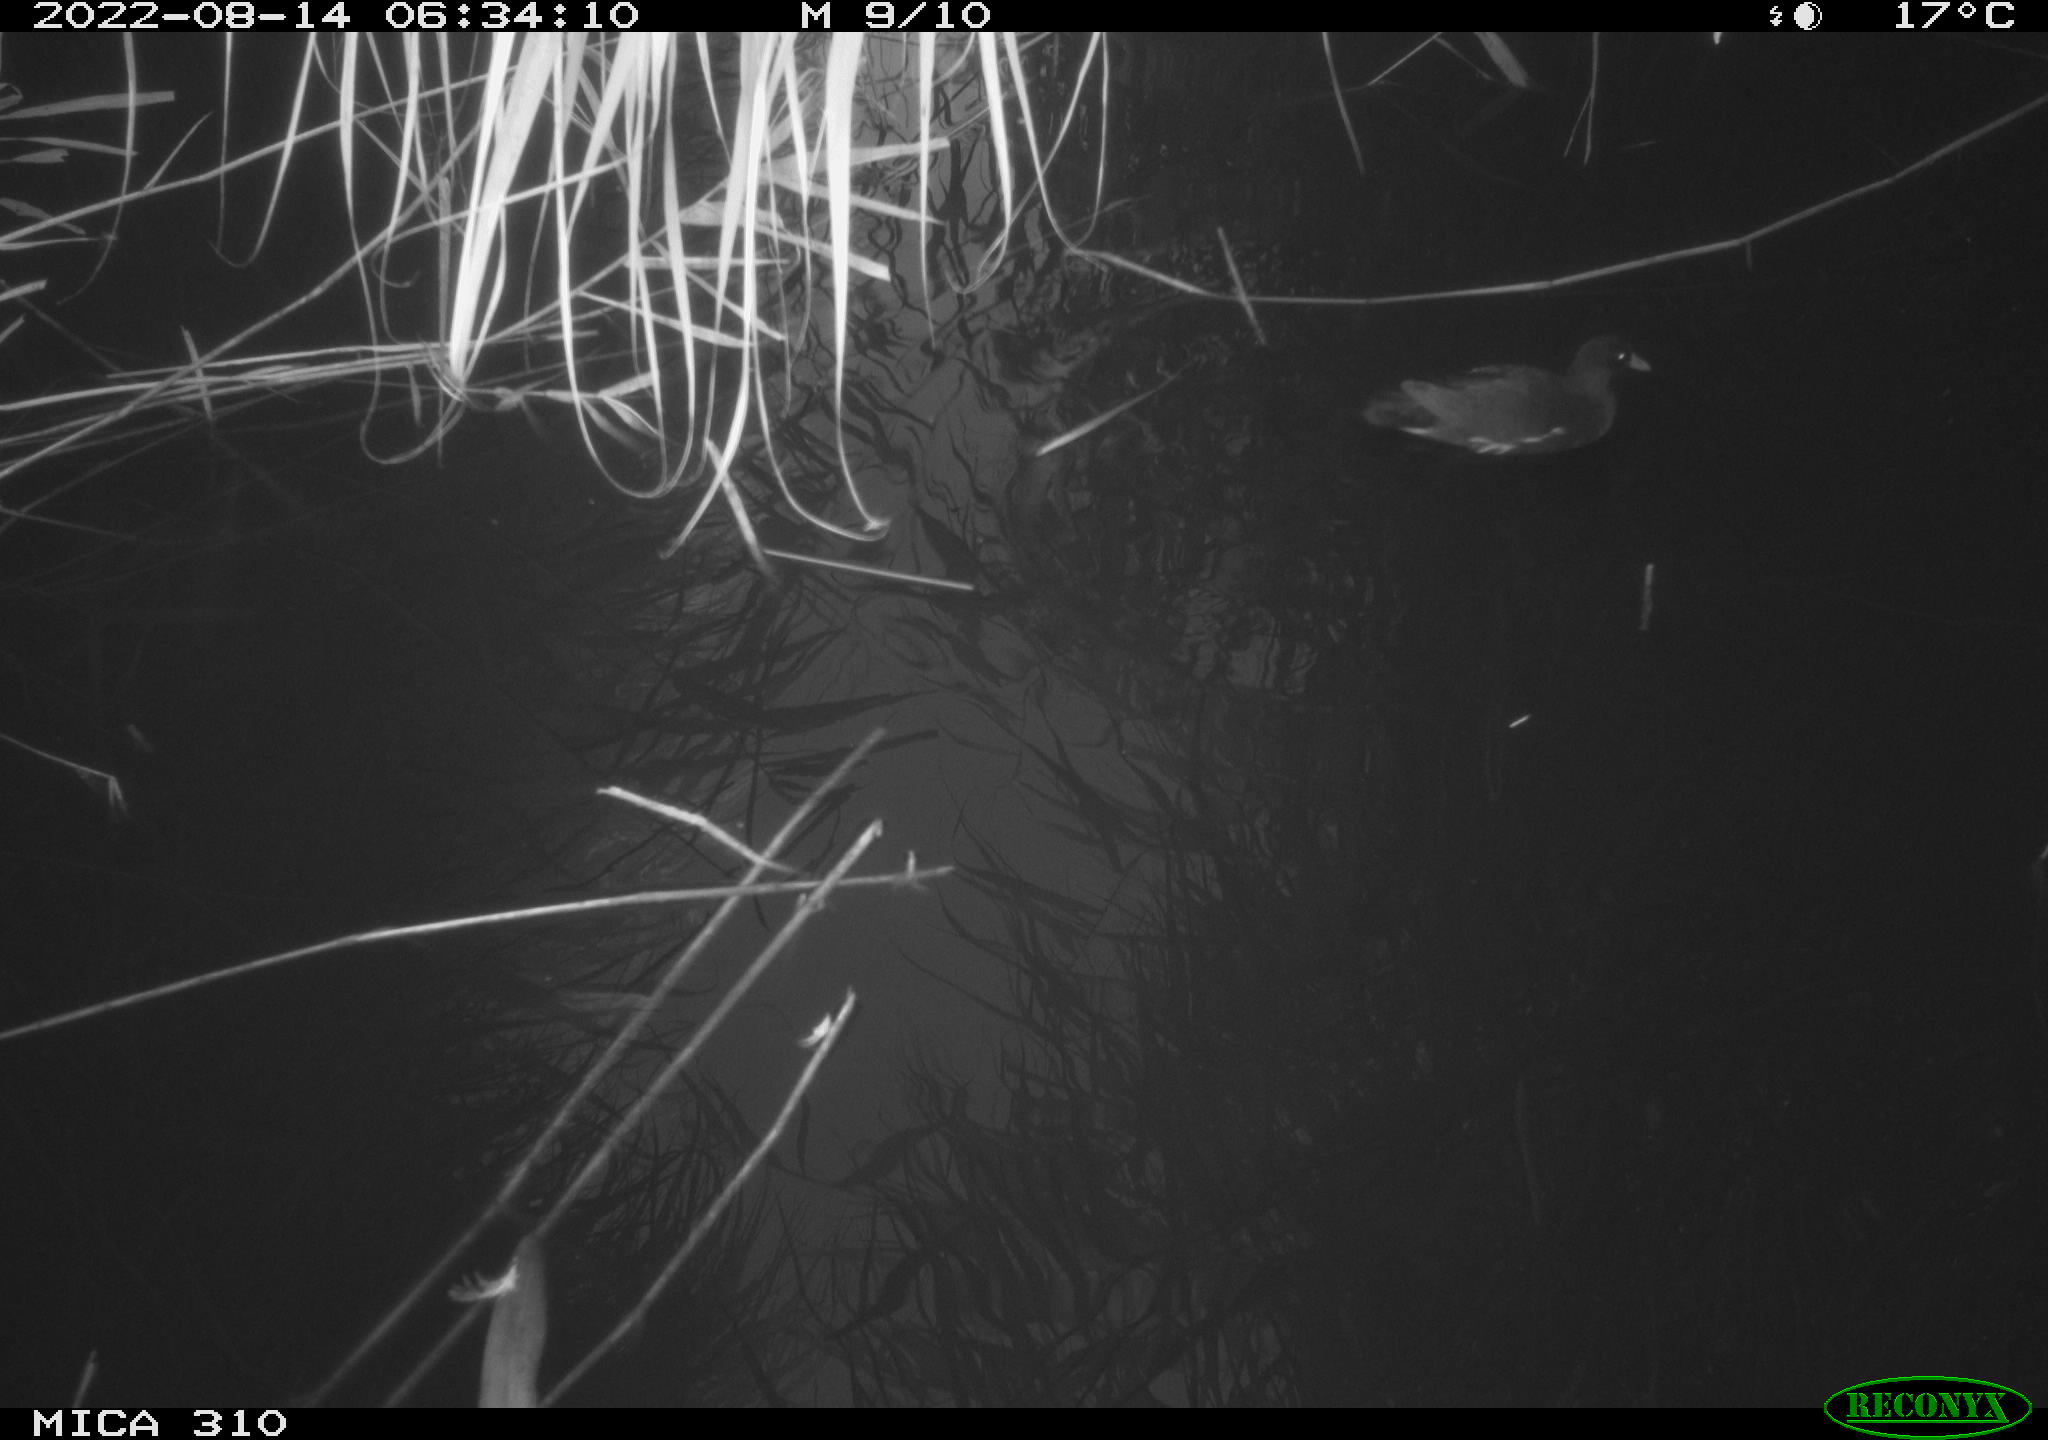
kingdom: Animalia
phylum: Chordata
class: Aves
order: Gruiformes
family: Rallidae
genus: Gallinula
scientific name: Gallinula chloropus
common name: Common moorhen
